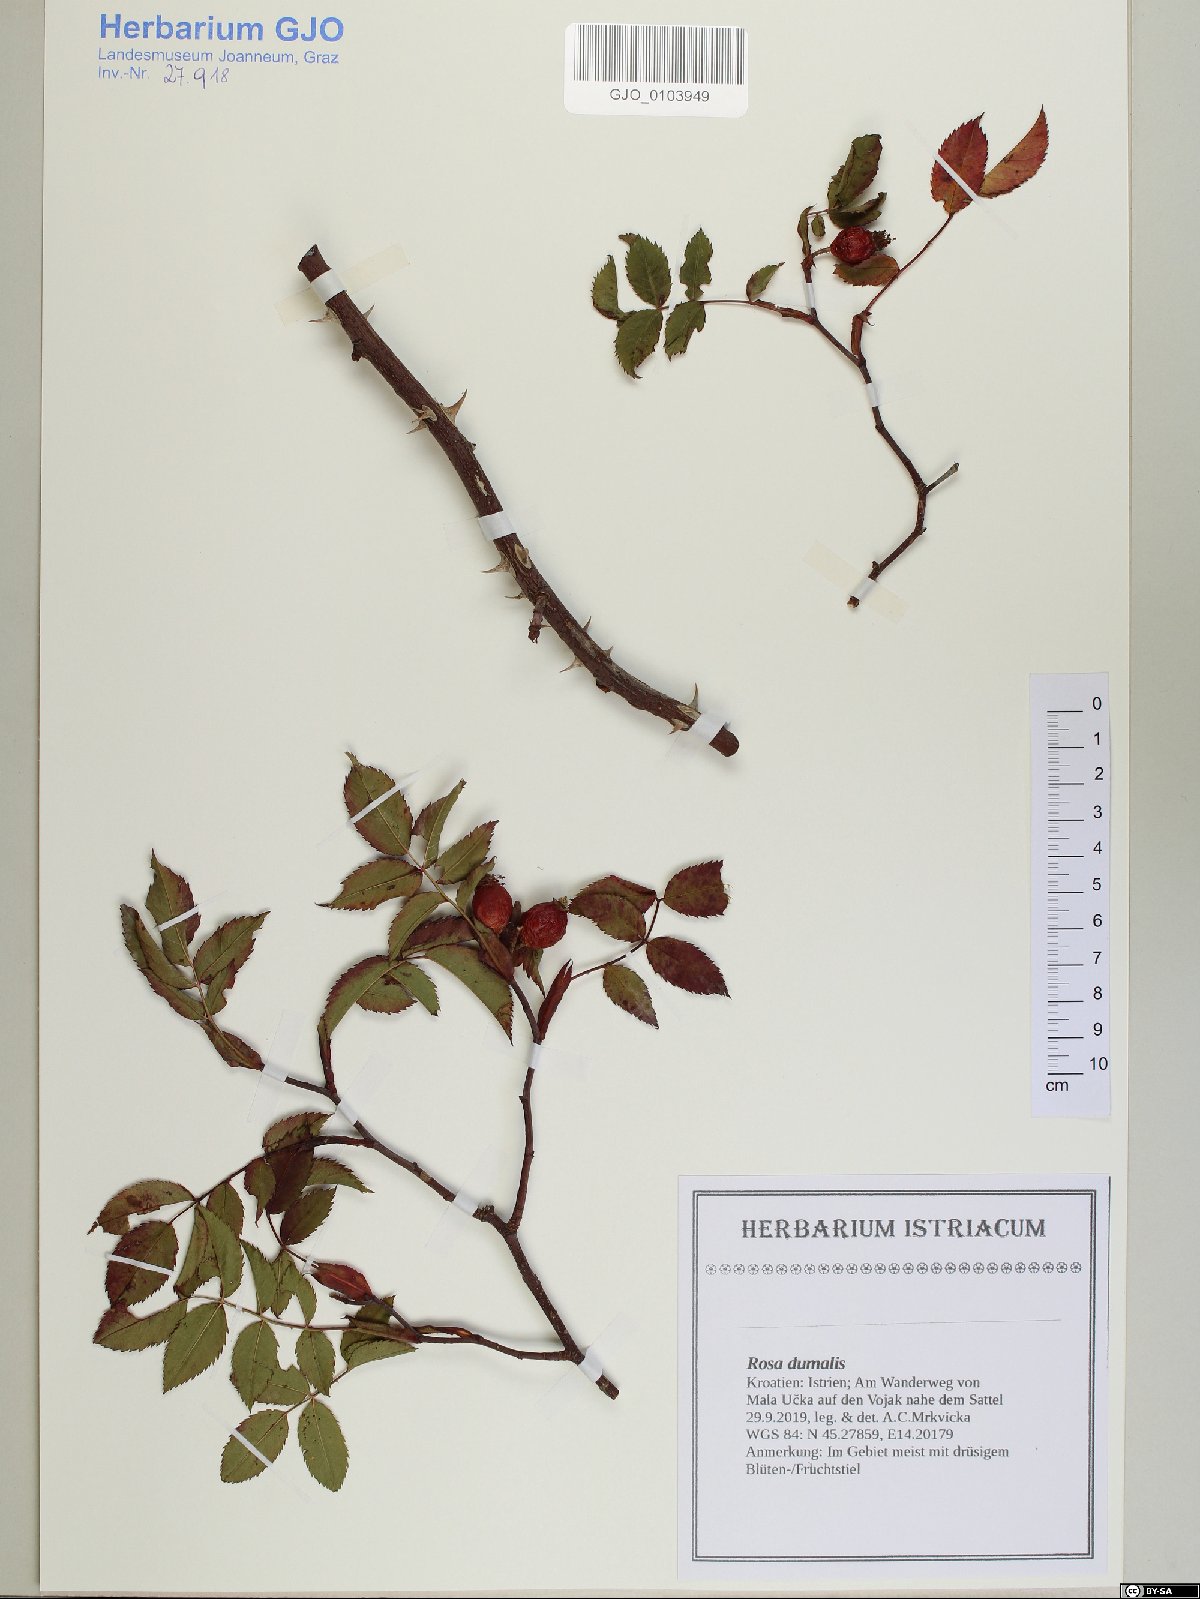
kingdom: Plantae
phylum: Tracheophyta
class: Magnoliopsida
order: Rosales
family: Rosaceae
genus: Rosa
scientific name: Rosa dumalis
